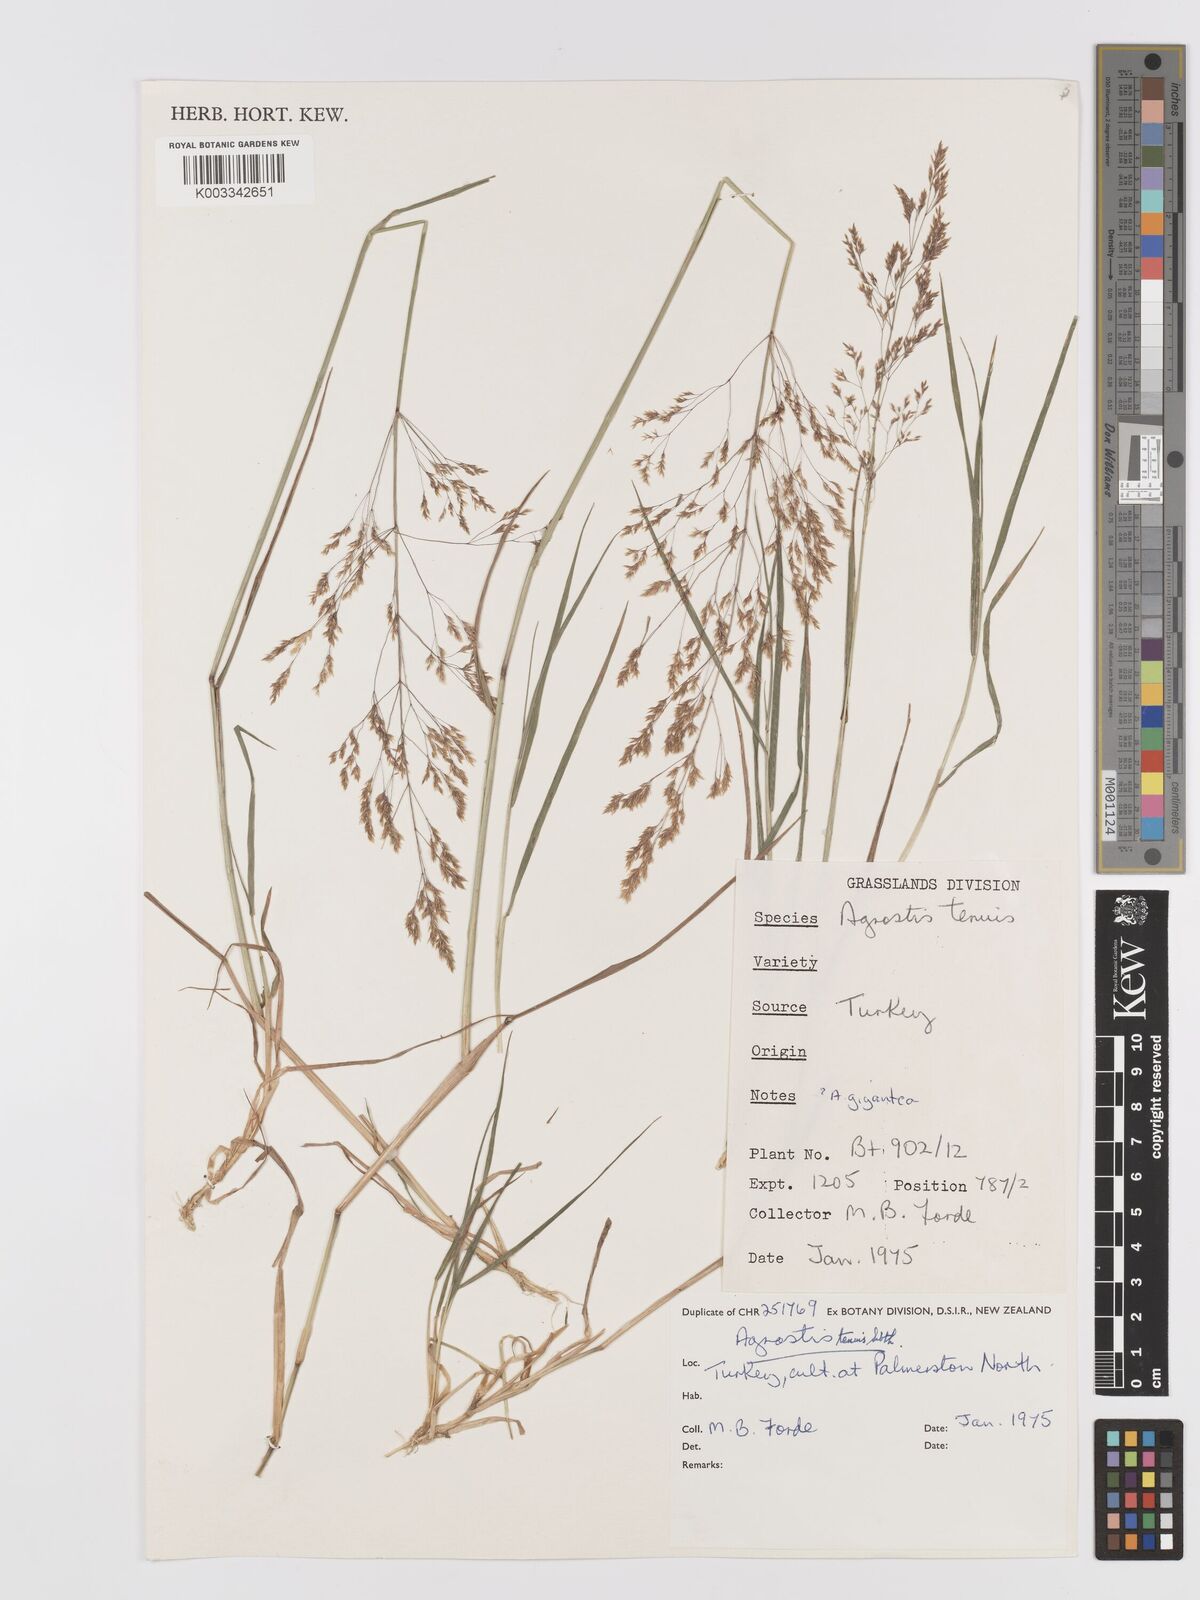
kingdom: Plantae
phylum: Tracheophyta
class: Liliopsida
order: Poales
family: Poaceae
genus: Agrostis
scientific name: Agrostis capillaris
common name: Colonial bentgrass
